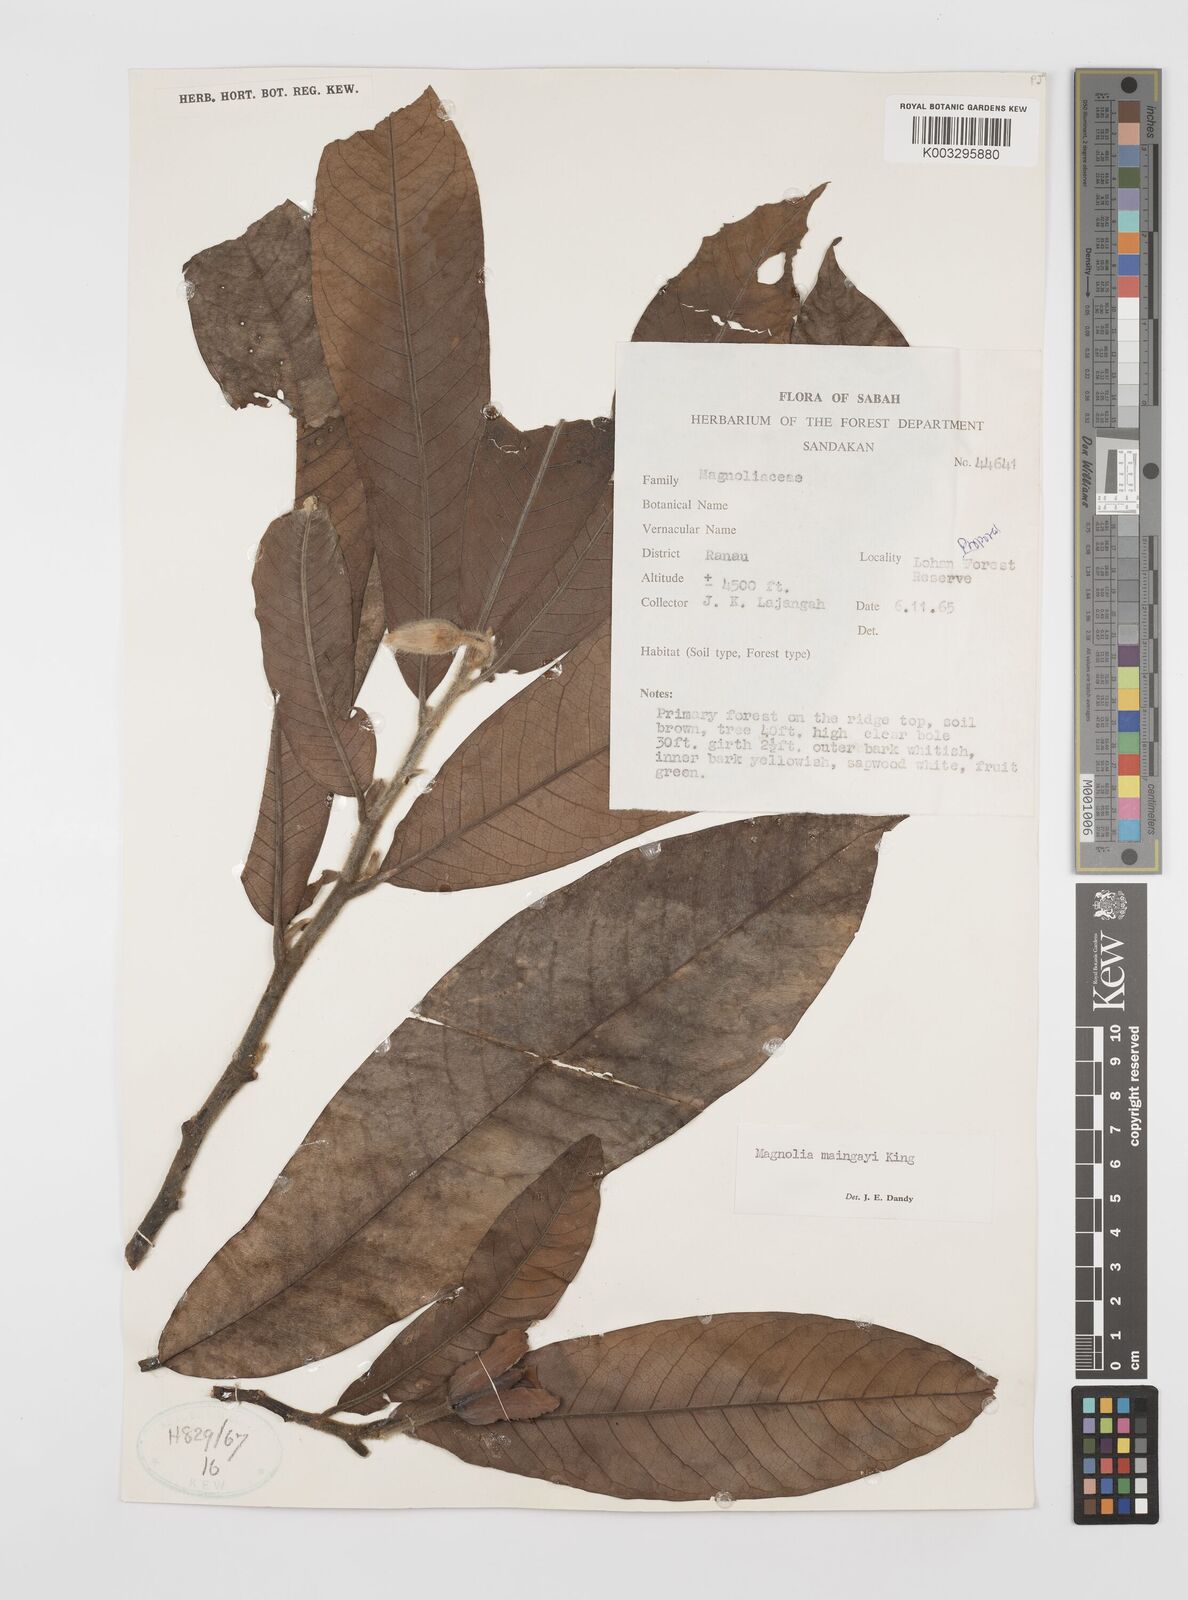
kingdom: Plantae
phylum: Tracheophyta
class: Magnoliopsida
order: Magnoliales
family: Magnoliaceae
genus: Magnolia
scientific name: Magnolia macklottii
